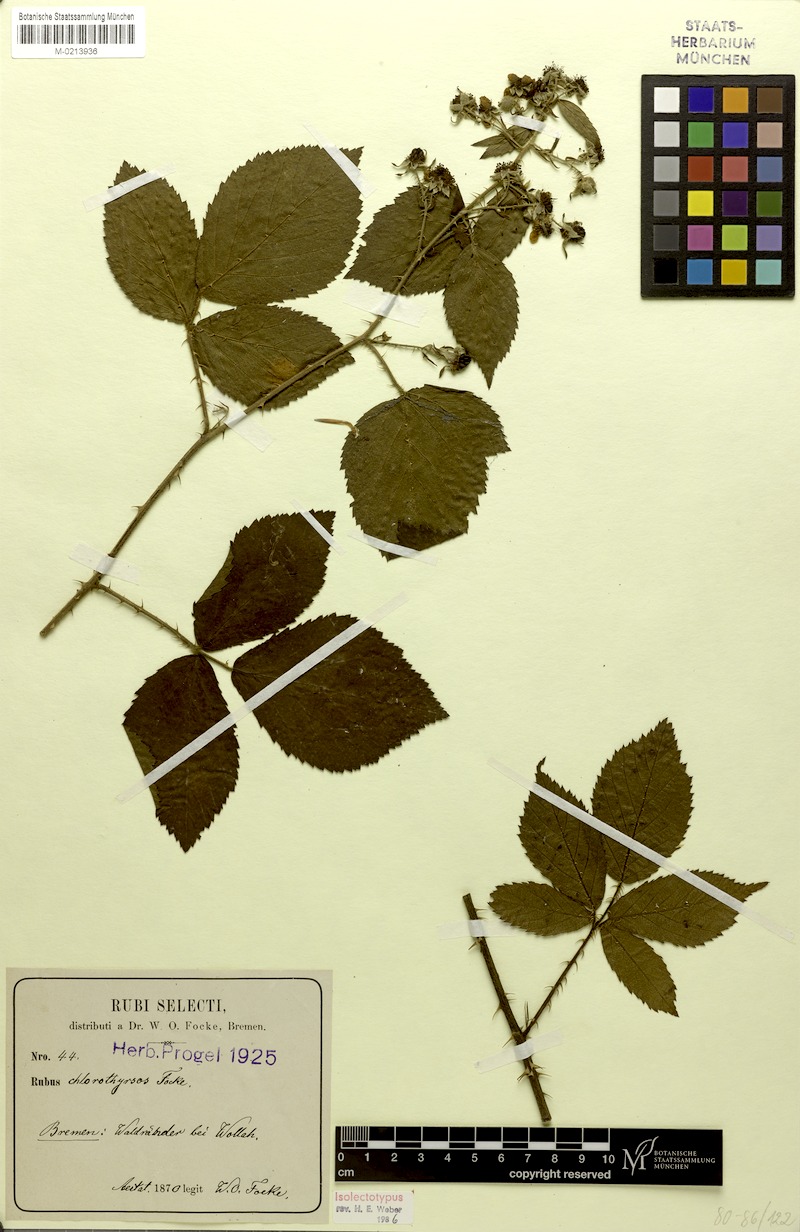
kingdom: Plantae
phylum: Tracheophyta
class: Magnoliopsida
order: Rosales
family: Rosaceae
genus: Rubus
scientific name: Rubus chlorothyrsos
